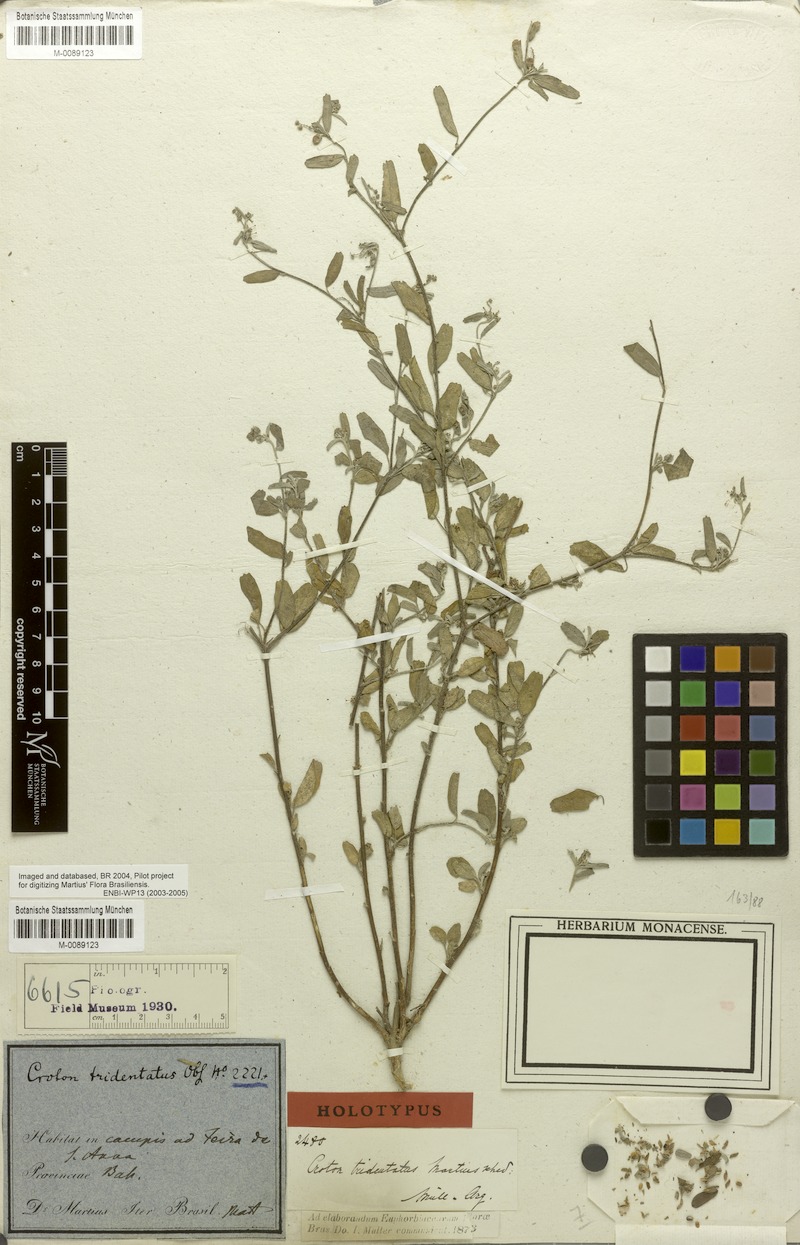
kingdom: Plantae
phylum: Tracheophyta
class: Magnoliopsida
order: Malpighiales
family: Euphorbiaceae
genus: Croton
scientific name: Croton tridentatus
